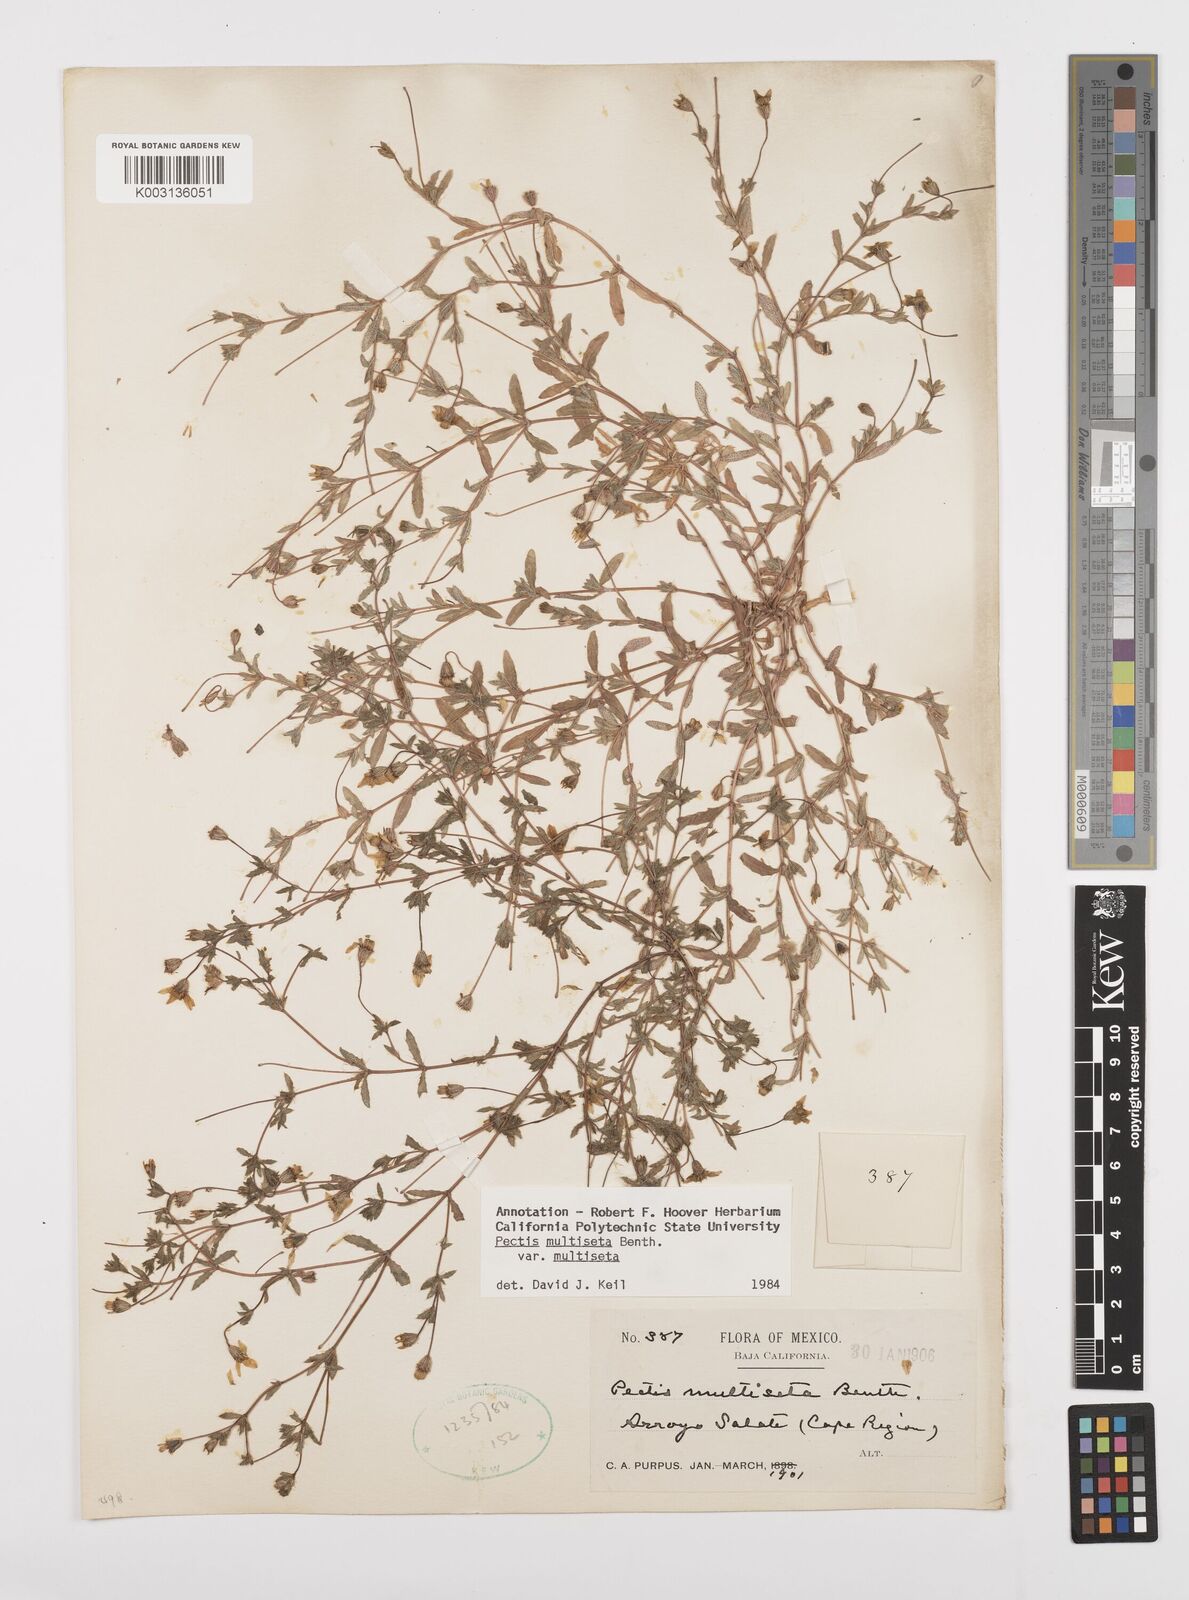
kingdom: Plantae
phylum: Tracheophyta
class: Magnoliopsida
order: Asterales
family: Asteraceae
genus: Pectis
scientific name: Pectis multiseta
